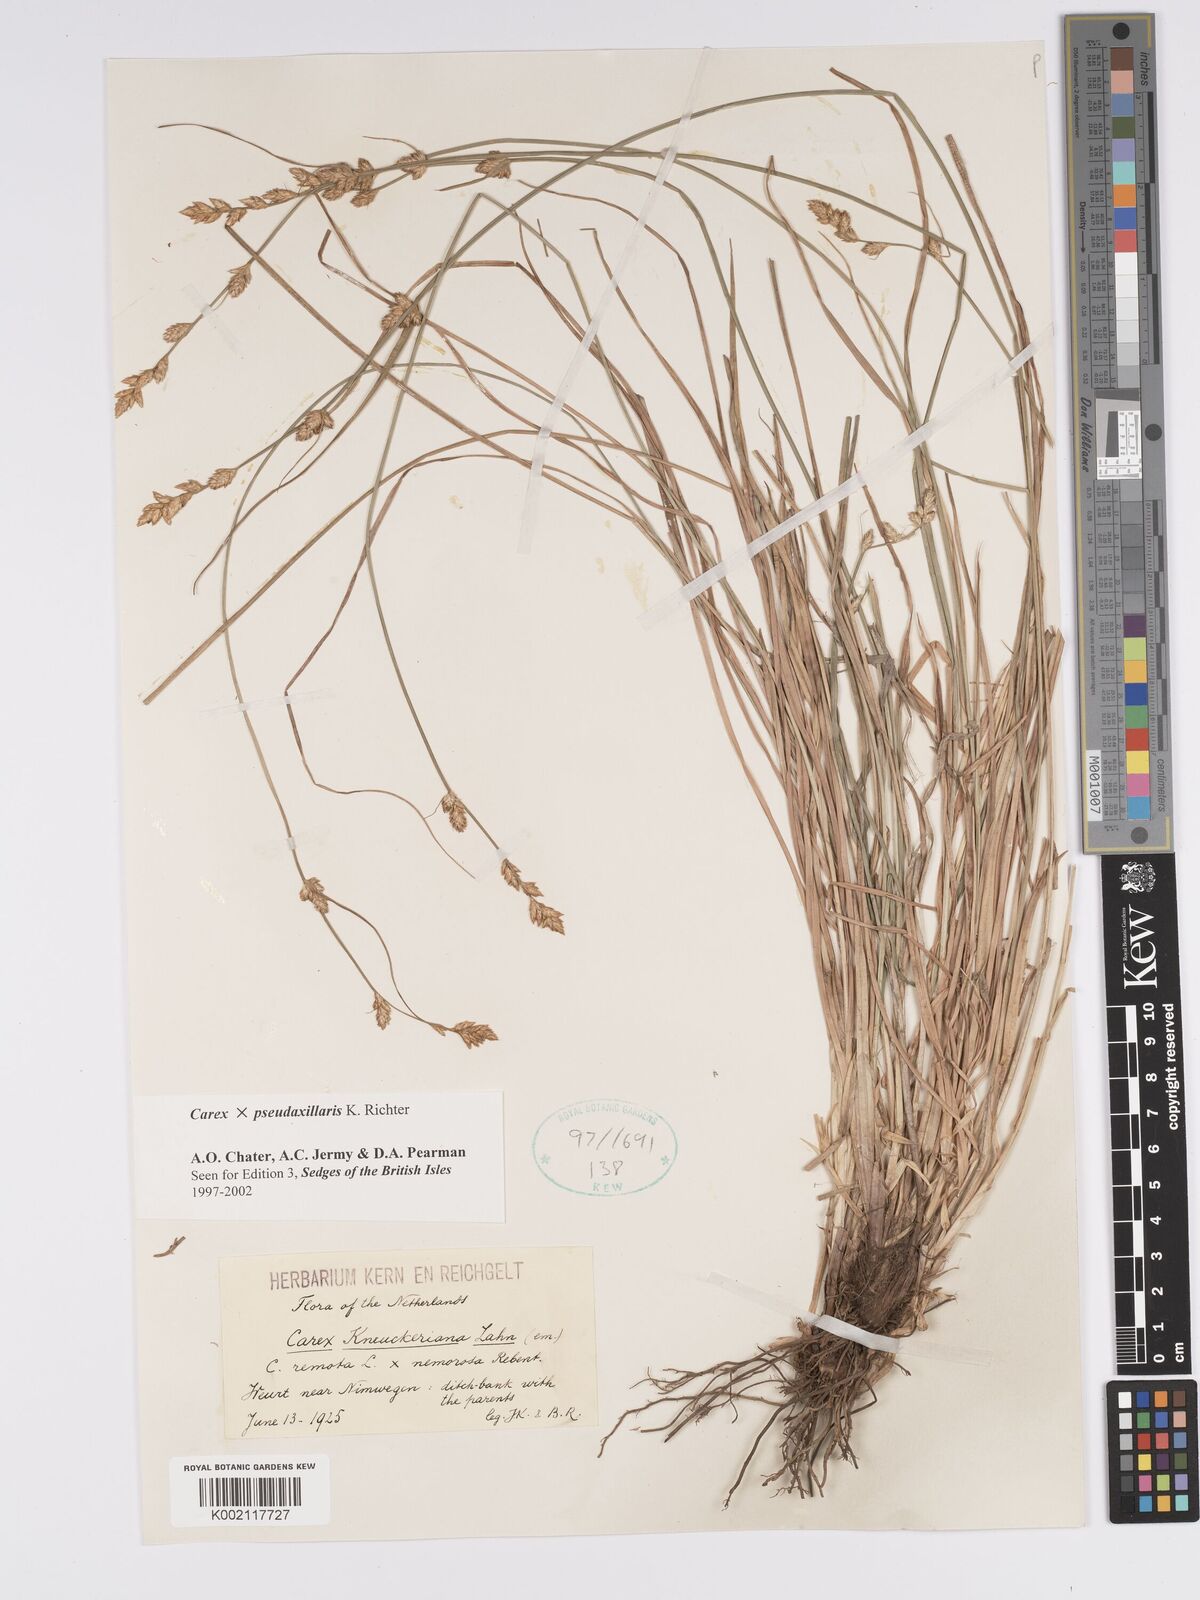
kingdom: Plantae
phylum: Tracheophyta
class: Liliopsida
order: Poales
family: Cyperaceae
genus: Carex
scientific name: Carex pseudoaxillaris
